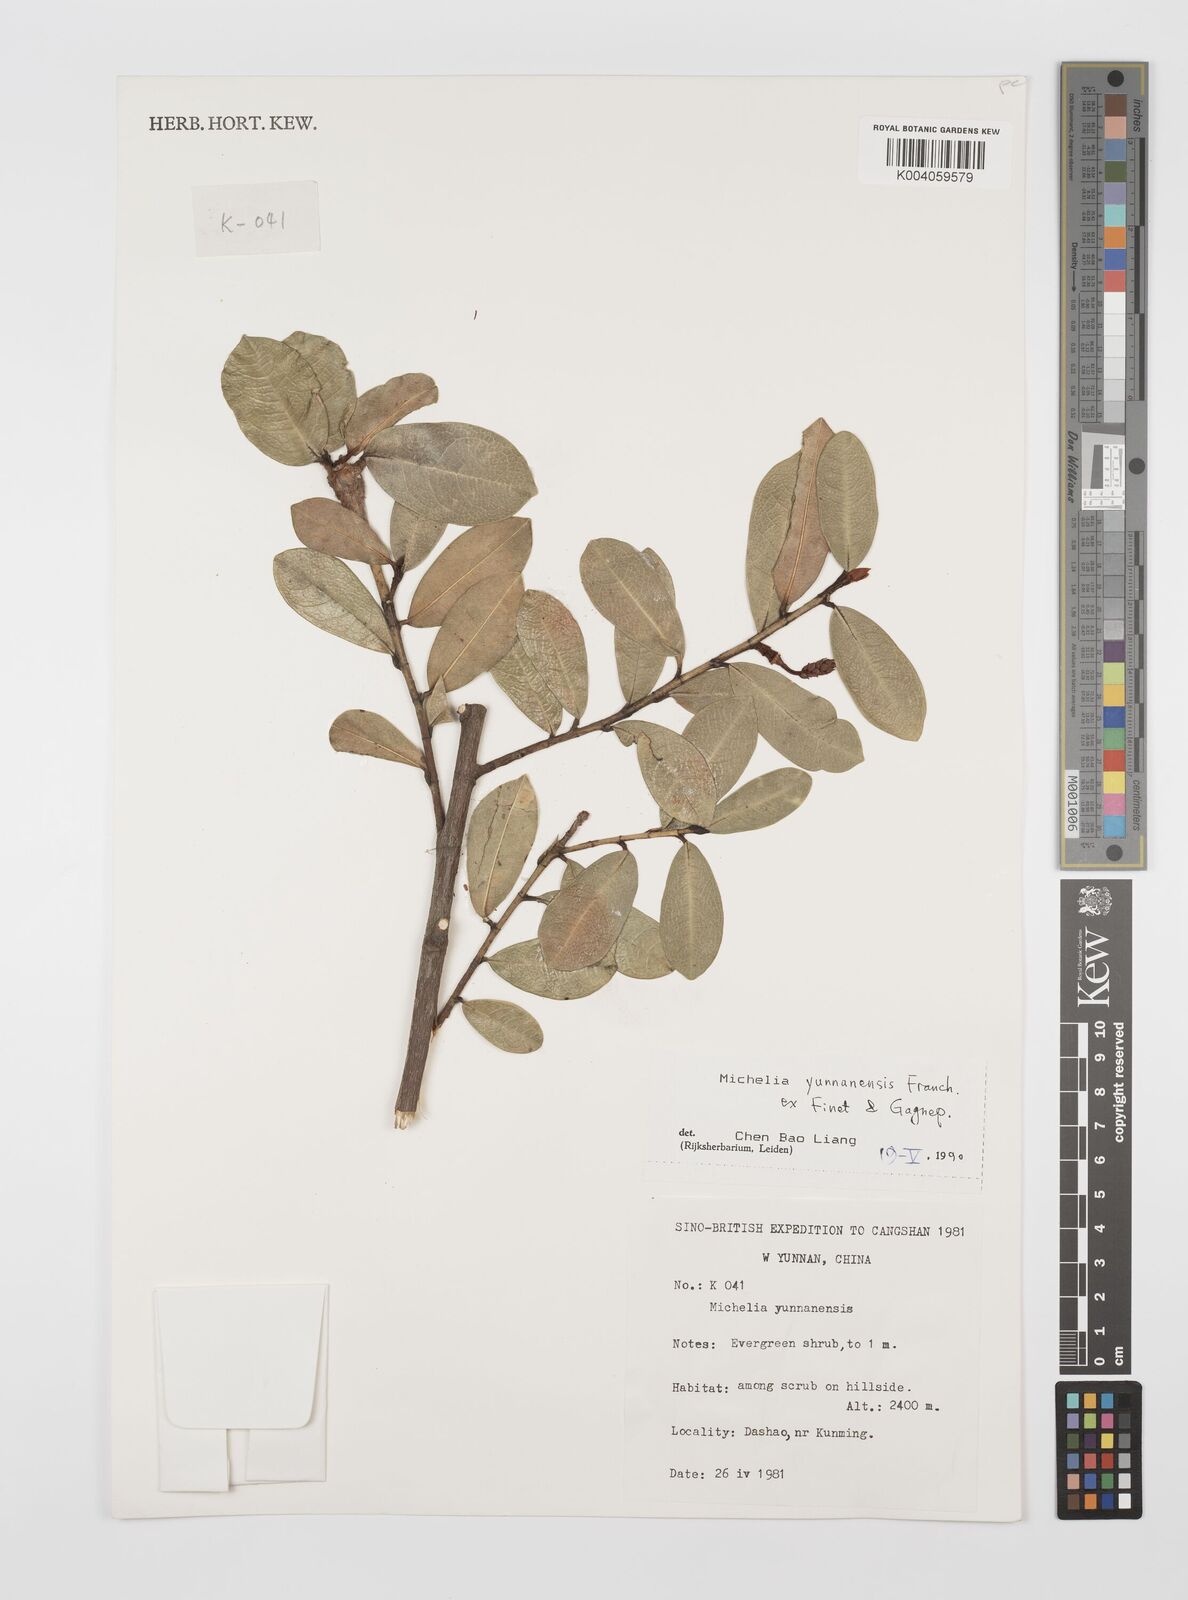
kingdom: Plantae
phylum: Tracheophyta
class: Magnoliopsida
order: Magnoliales
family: Magnoliaceae
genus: Magnolia
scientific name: Magnolia laevifolia
